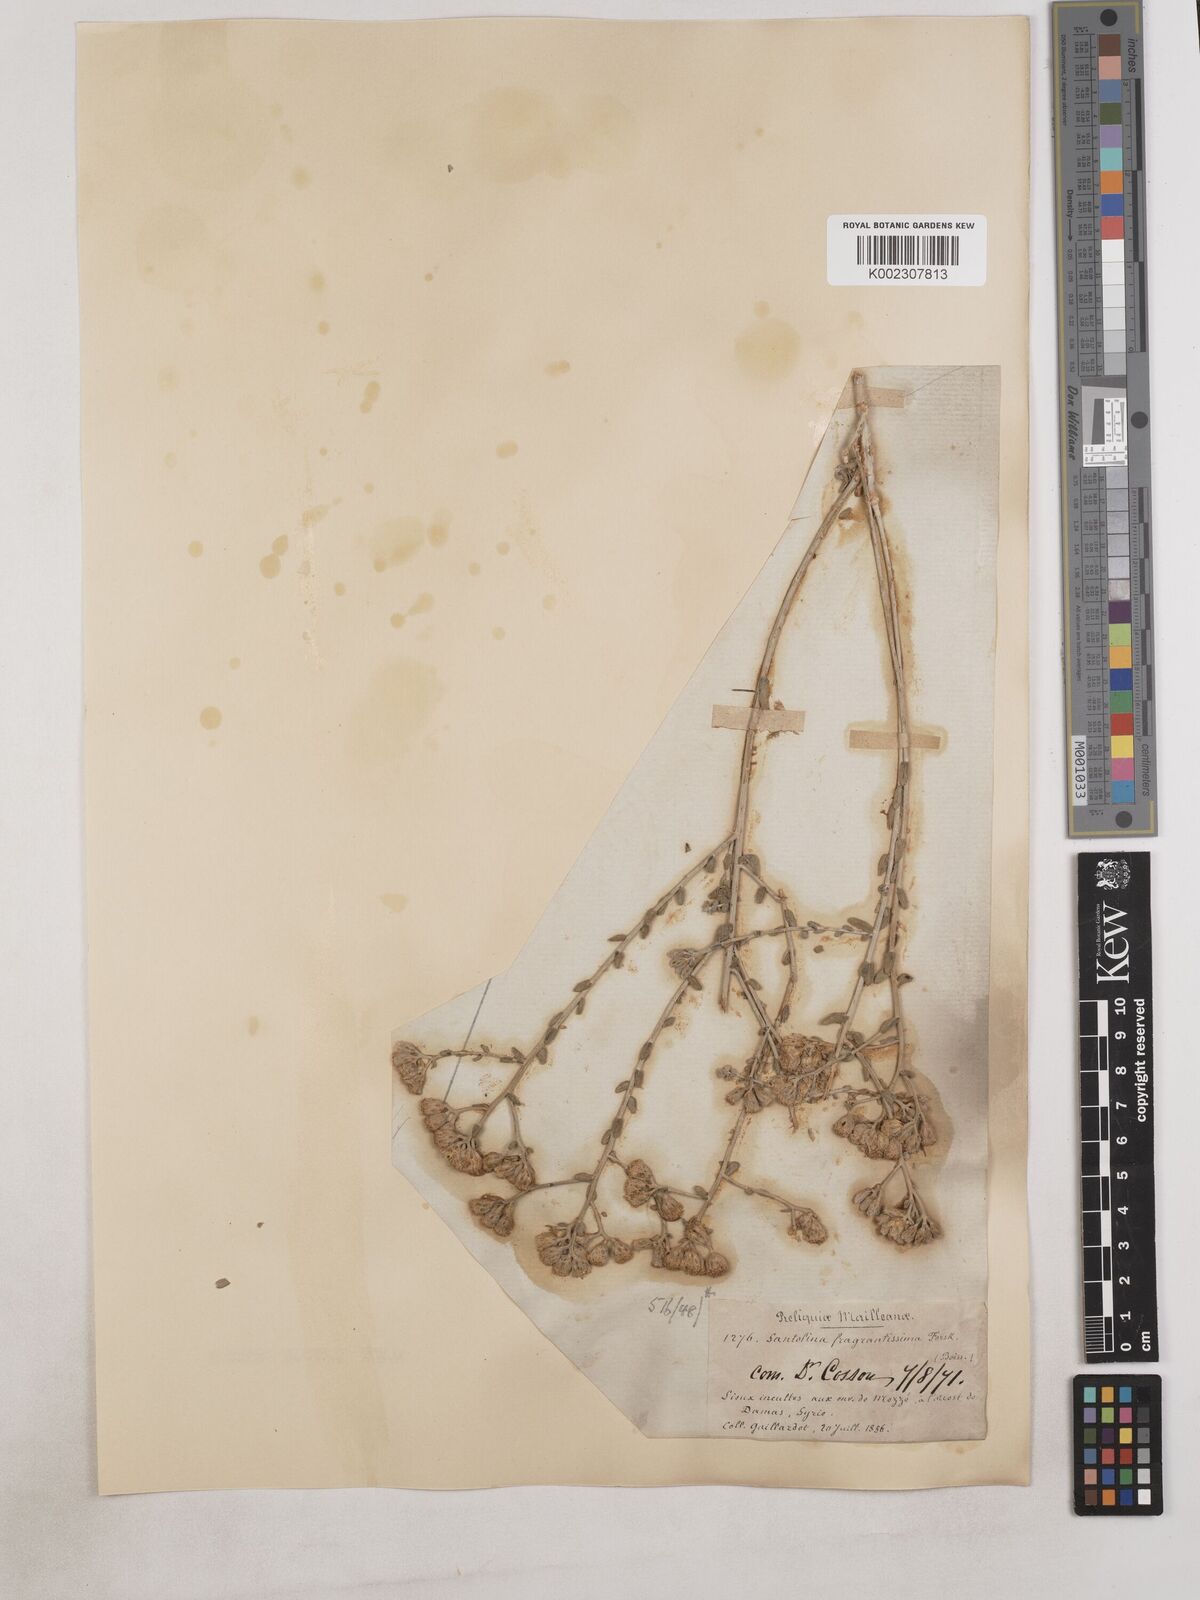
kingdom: Plantae
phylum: Tracheophyta
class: Magnoliopsida
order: Asterales
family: Asteraceae
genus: Achillea
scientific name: Achillea fragrantissima
